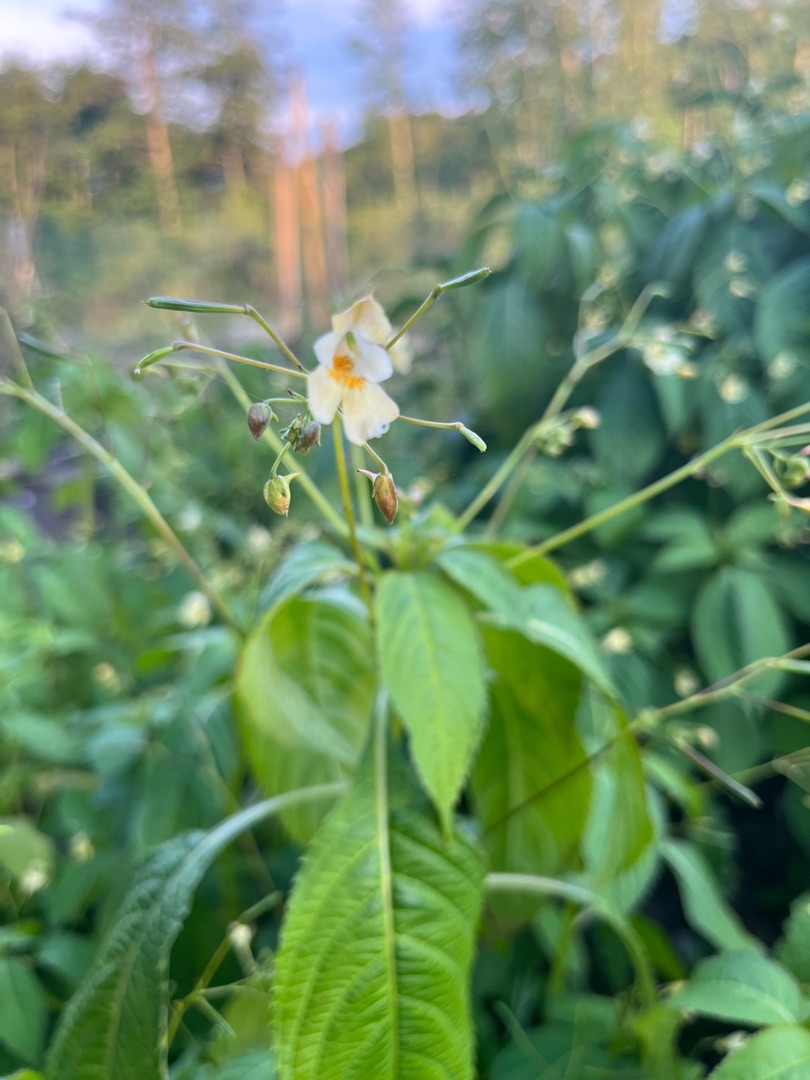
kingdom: Plantae
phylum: Tracheophyta
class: Magnoliopsida
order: Ericales
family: Balsaminaceae
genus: Impatiens
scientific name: Impatiens parviflora
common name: Småblomstret balsamin
